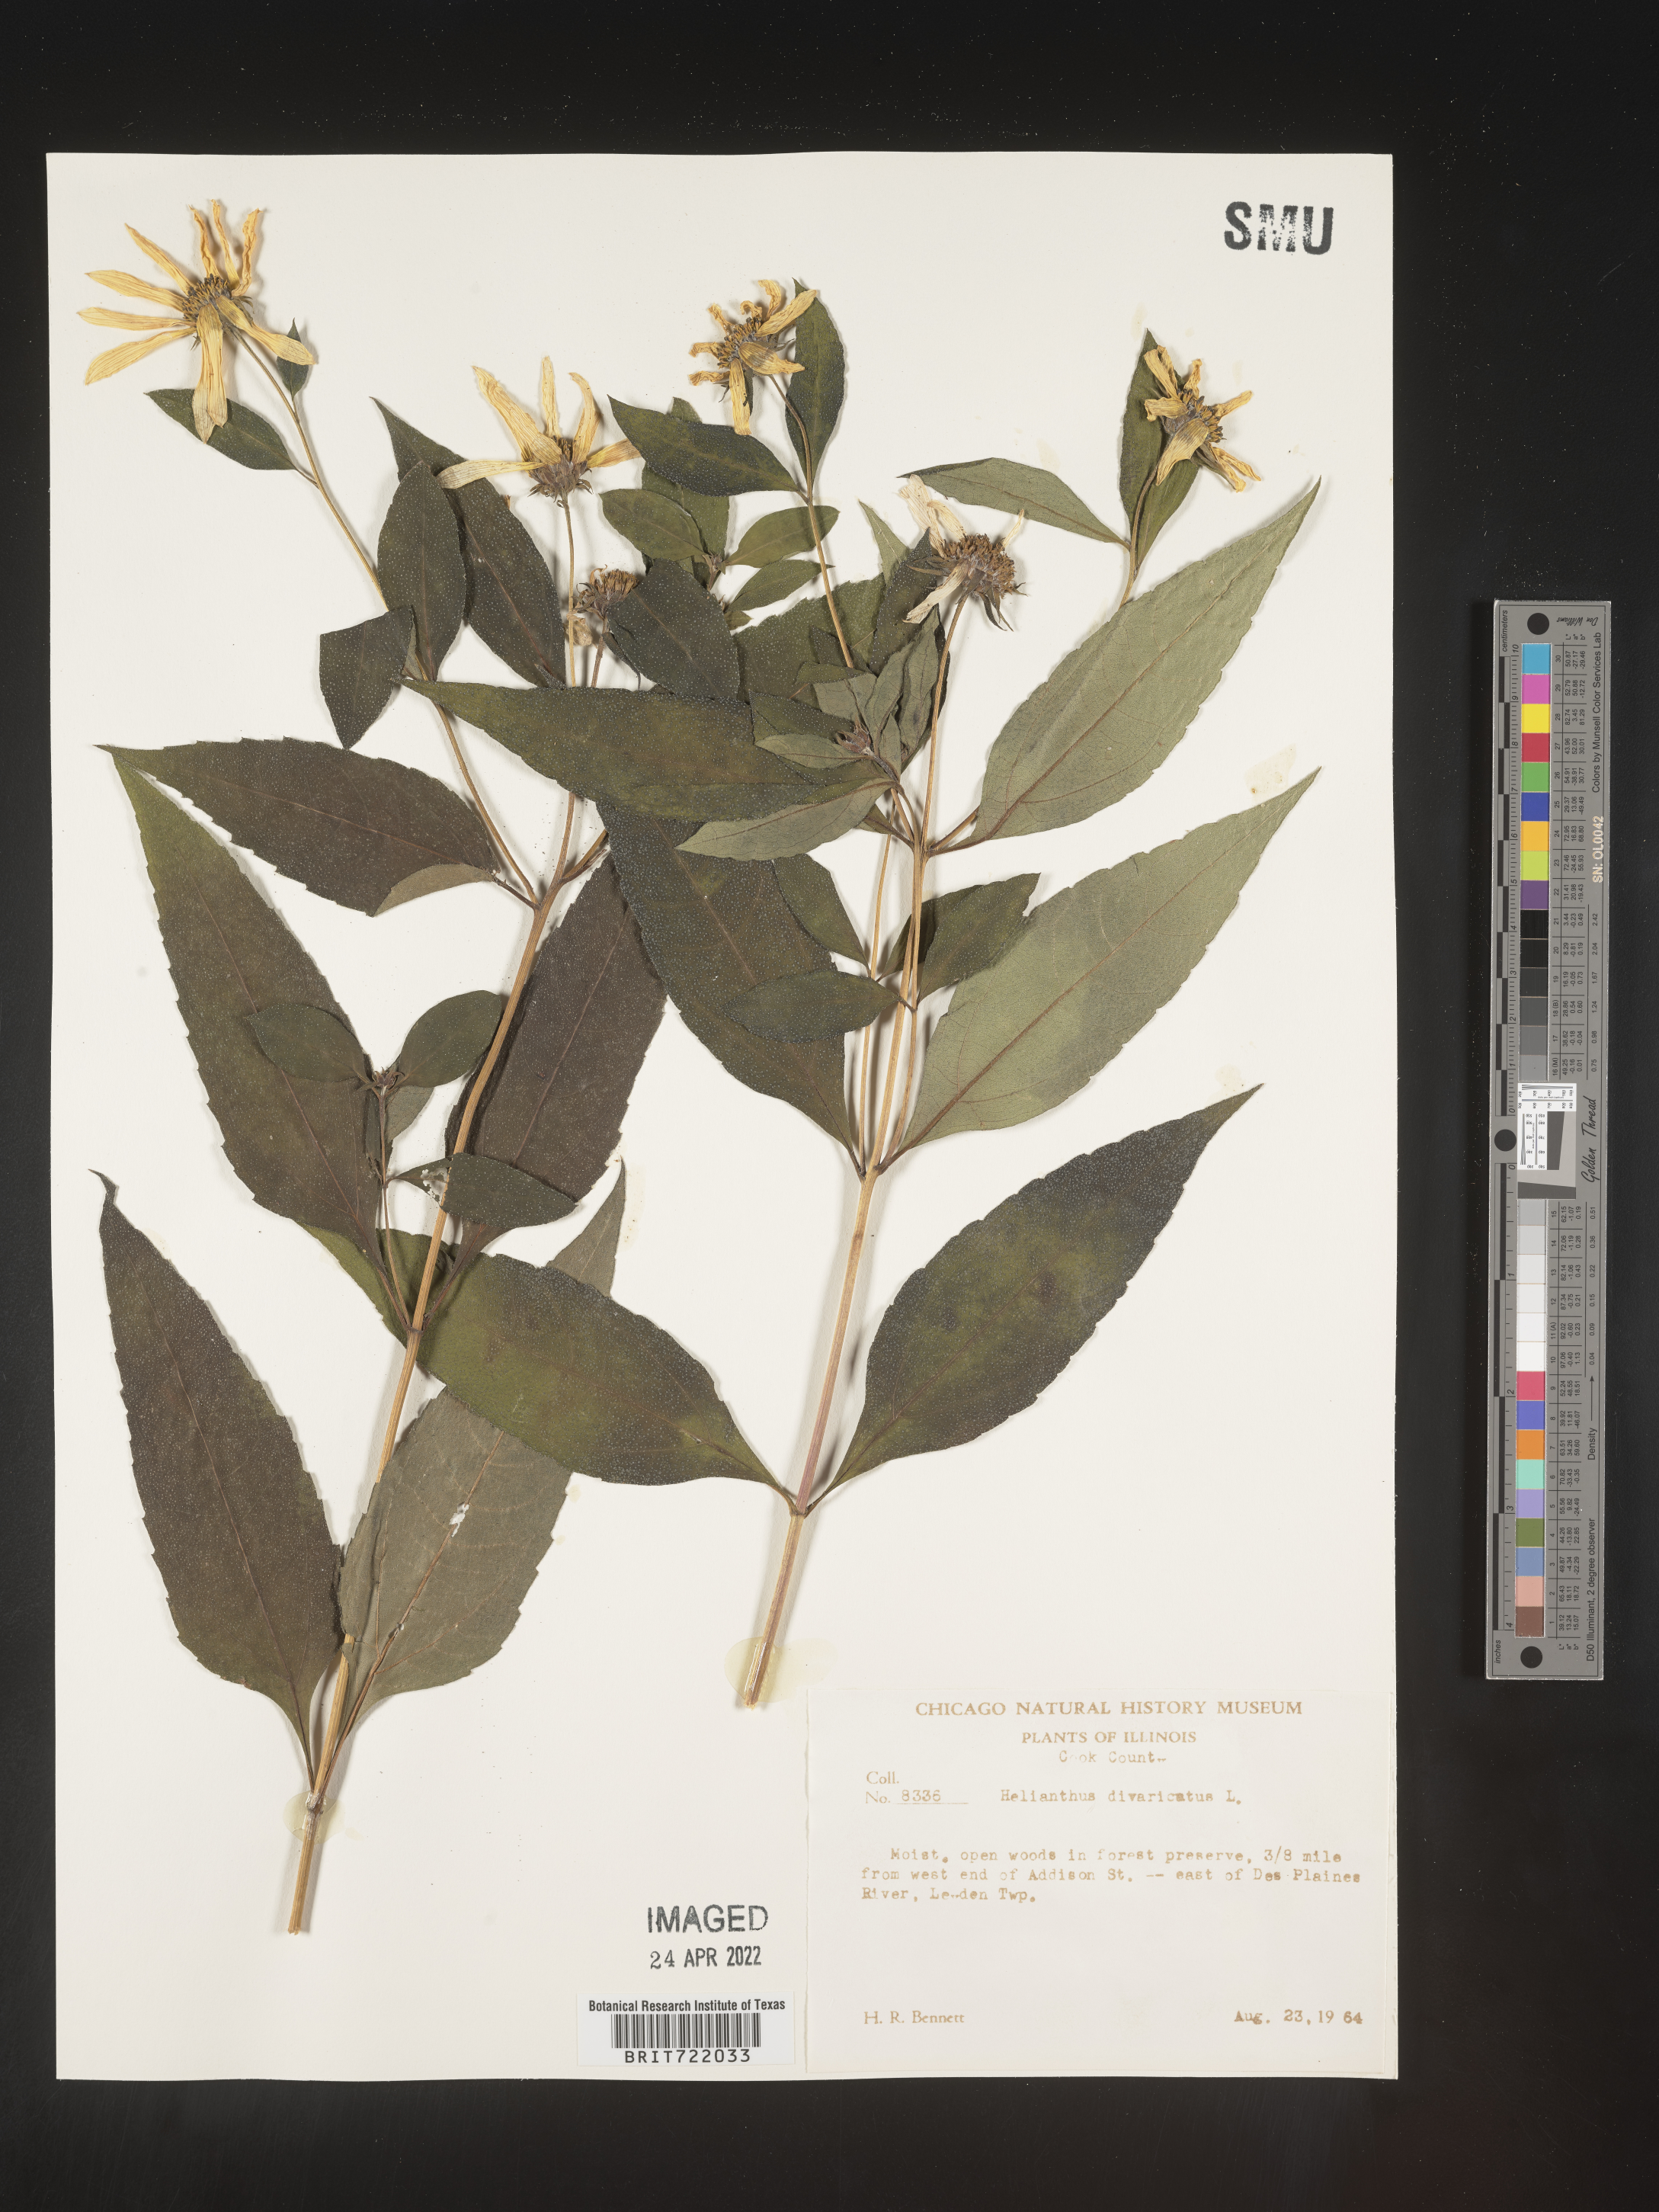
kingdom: Plantae
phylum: Tracheophyta
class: Magnoliopsida
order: Asterales
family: Asteraceae
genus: Helianthus
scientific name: Helianthus divaricatus
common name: Divergent sunflower
